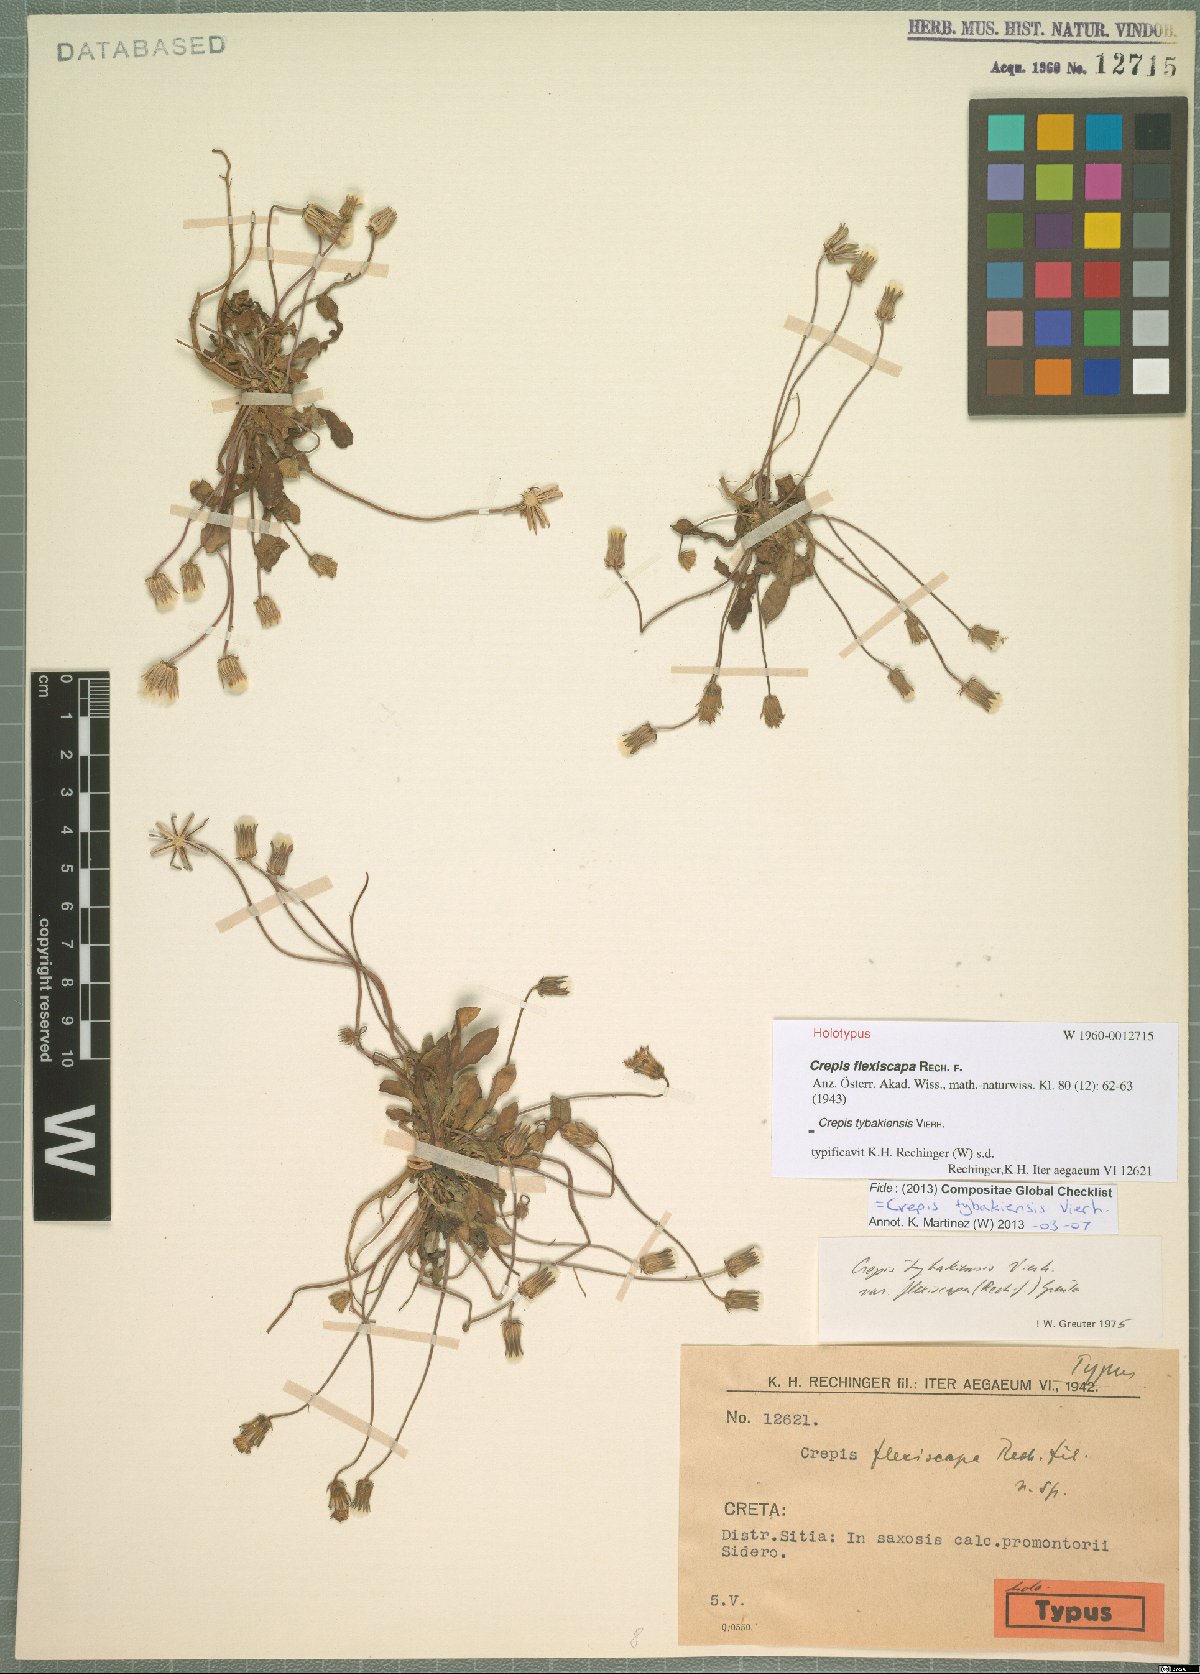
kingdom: Plantae
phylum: Tracheophyta
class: Magnoliopsida
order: Asterales
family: Asteraceae
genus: Crepis
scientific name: Crepis tybakiensis
